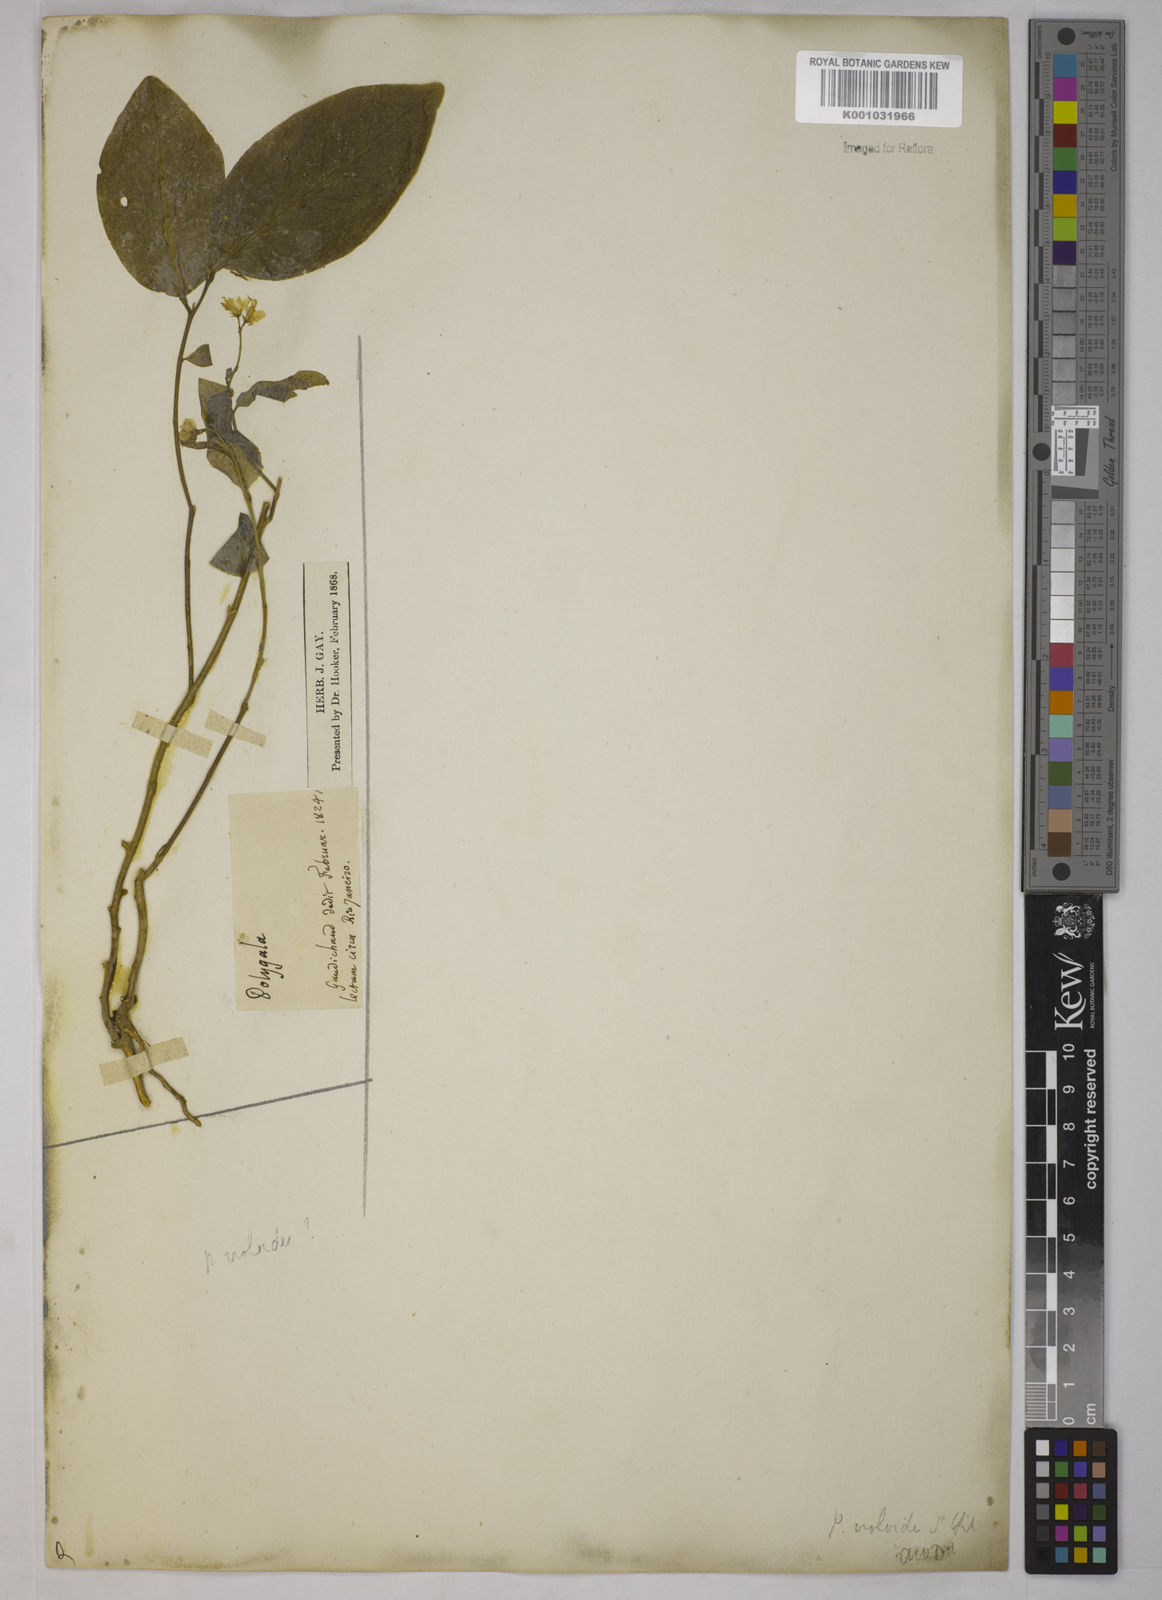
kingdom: Plantae
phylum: Tracheophyta
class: Magnoliopsida
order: Fabales
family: Polygalaceae
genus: Gymnospora
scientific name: Gymnospora violoides
